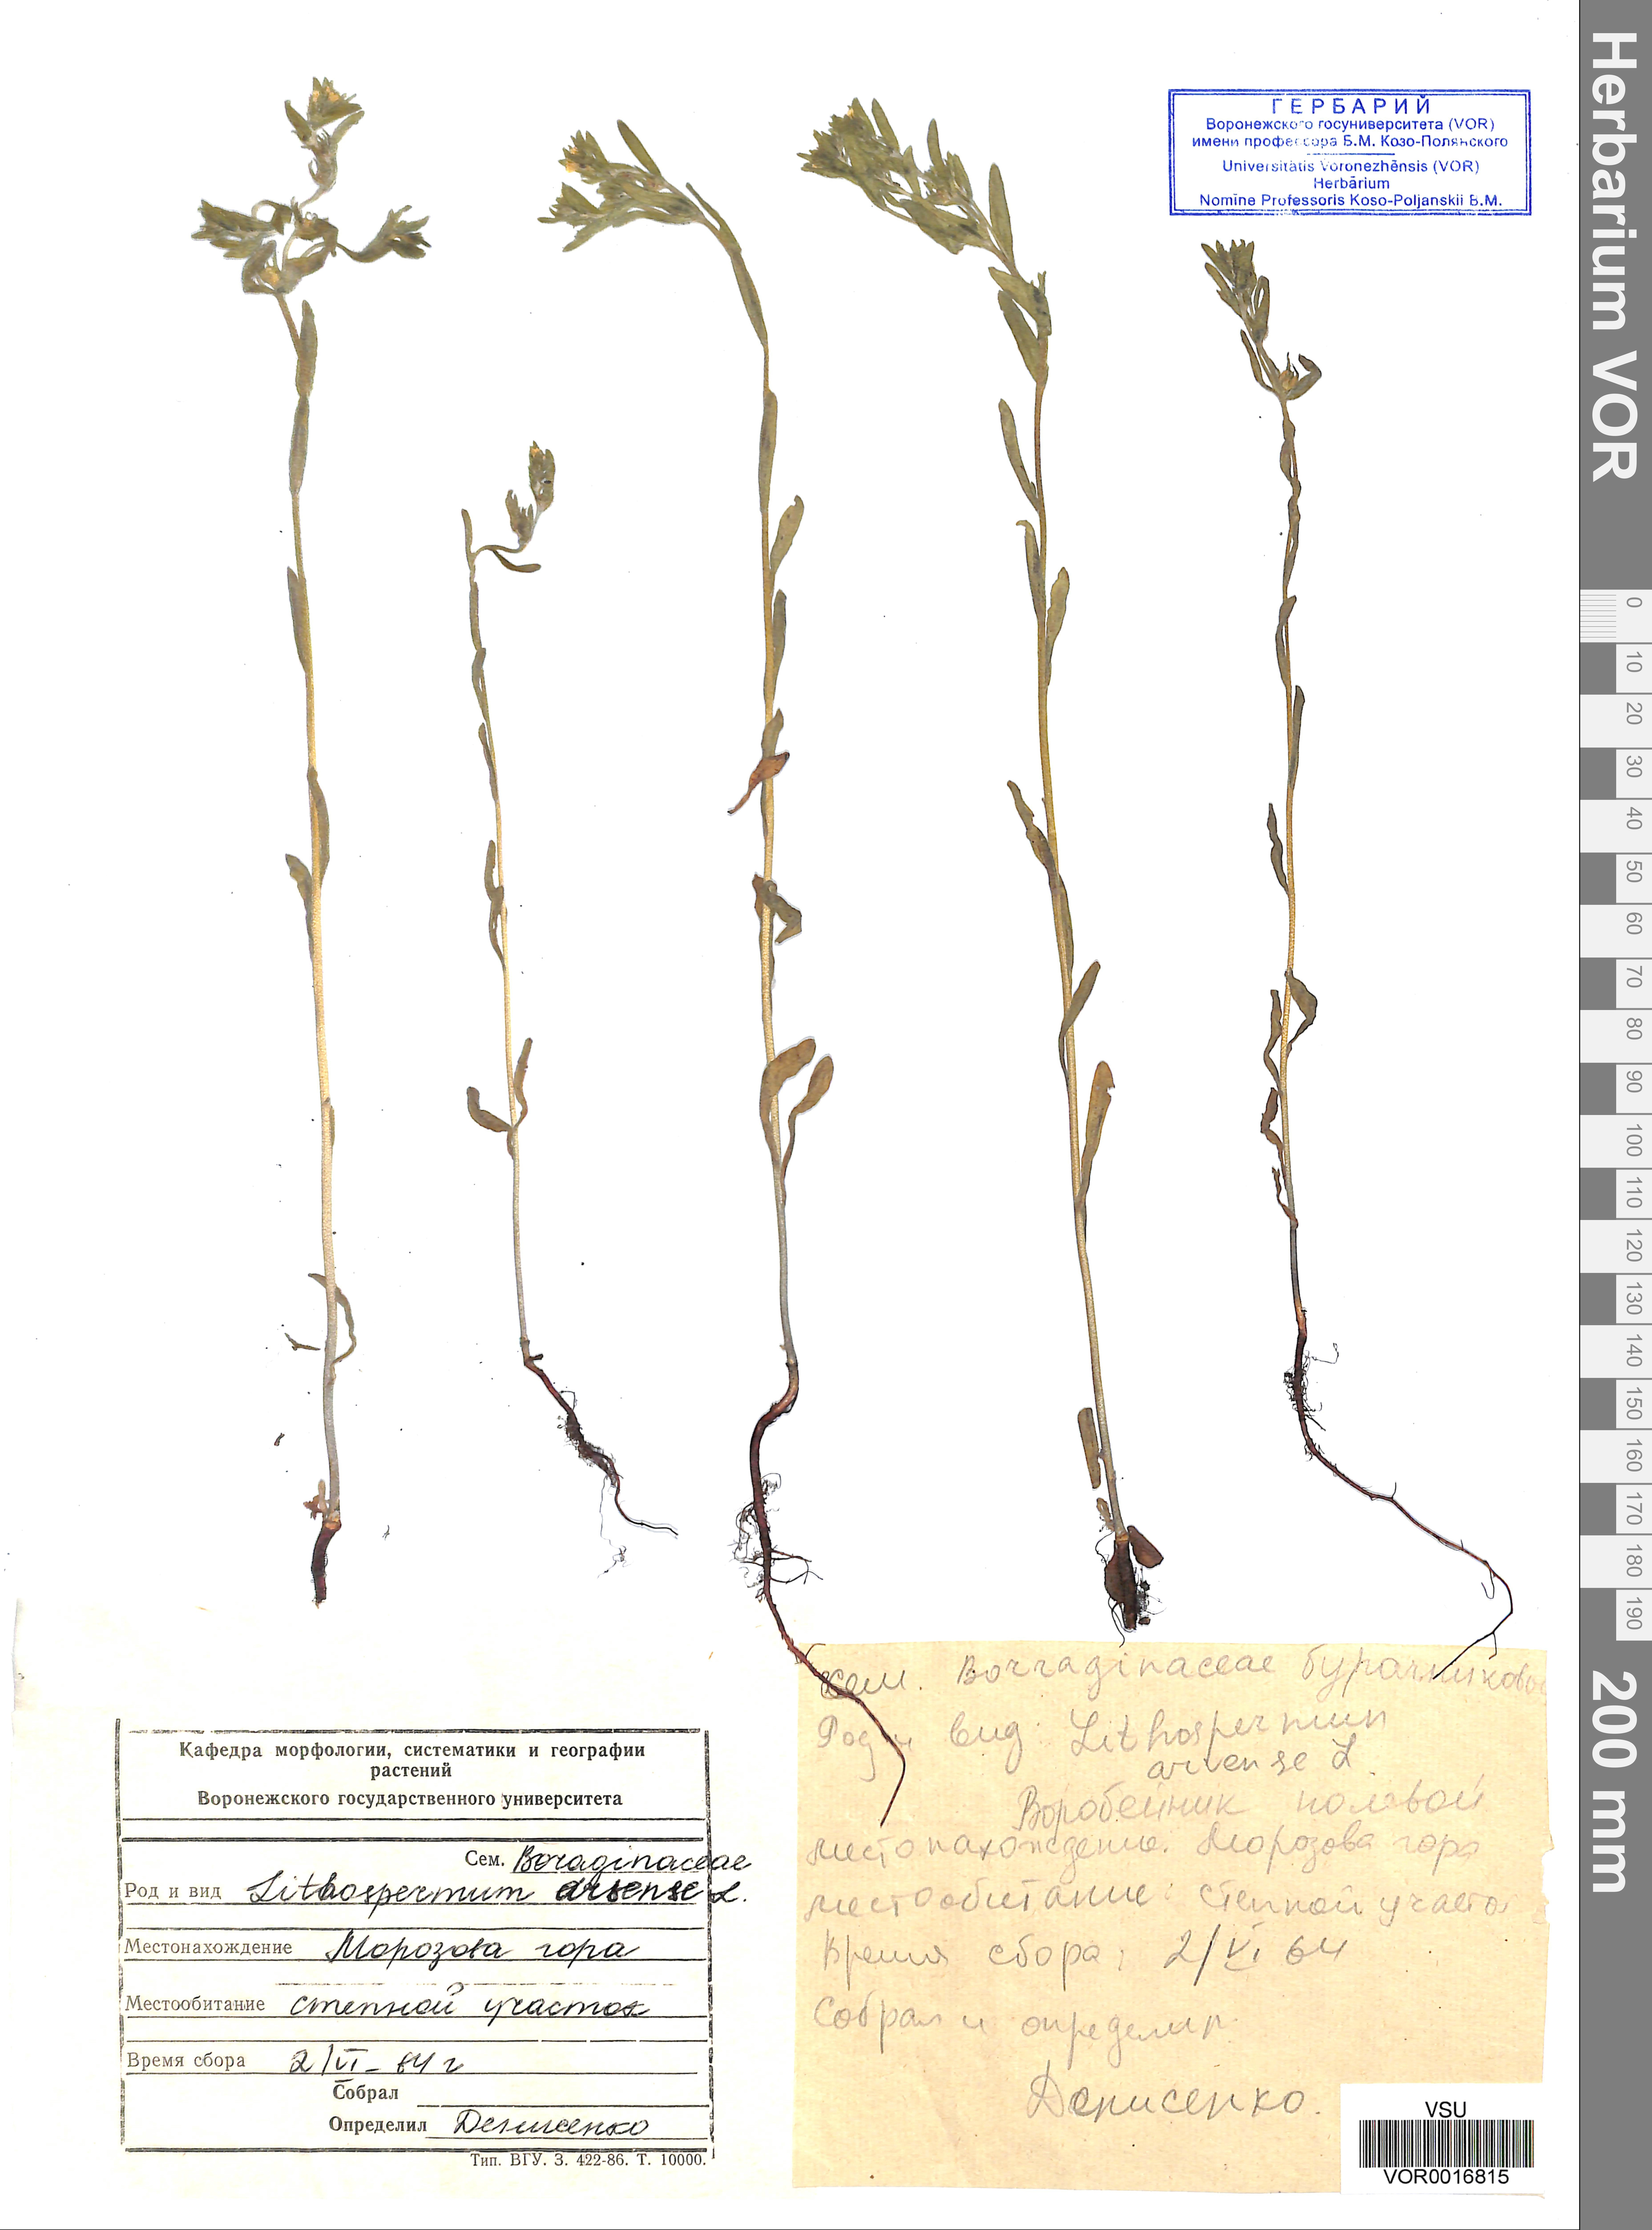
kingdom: Plantae
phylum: Tracheophyta
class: Magnoliopsida
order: Boraginales
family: Boraginaceae
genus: Buglossoides
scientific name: Buglossoides arvensis
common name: Corn gromwell
